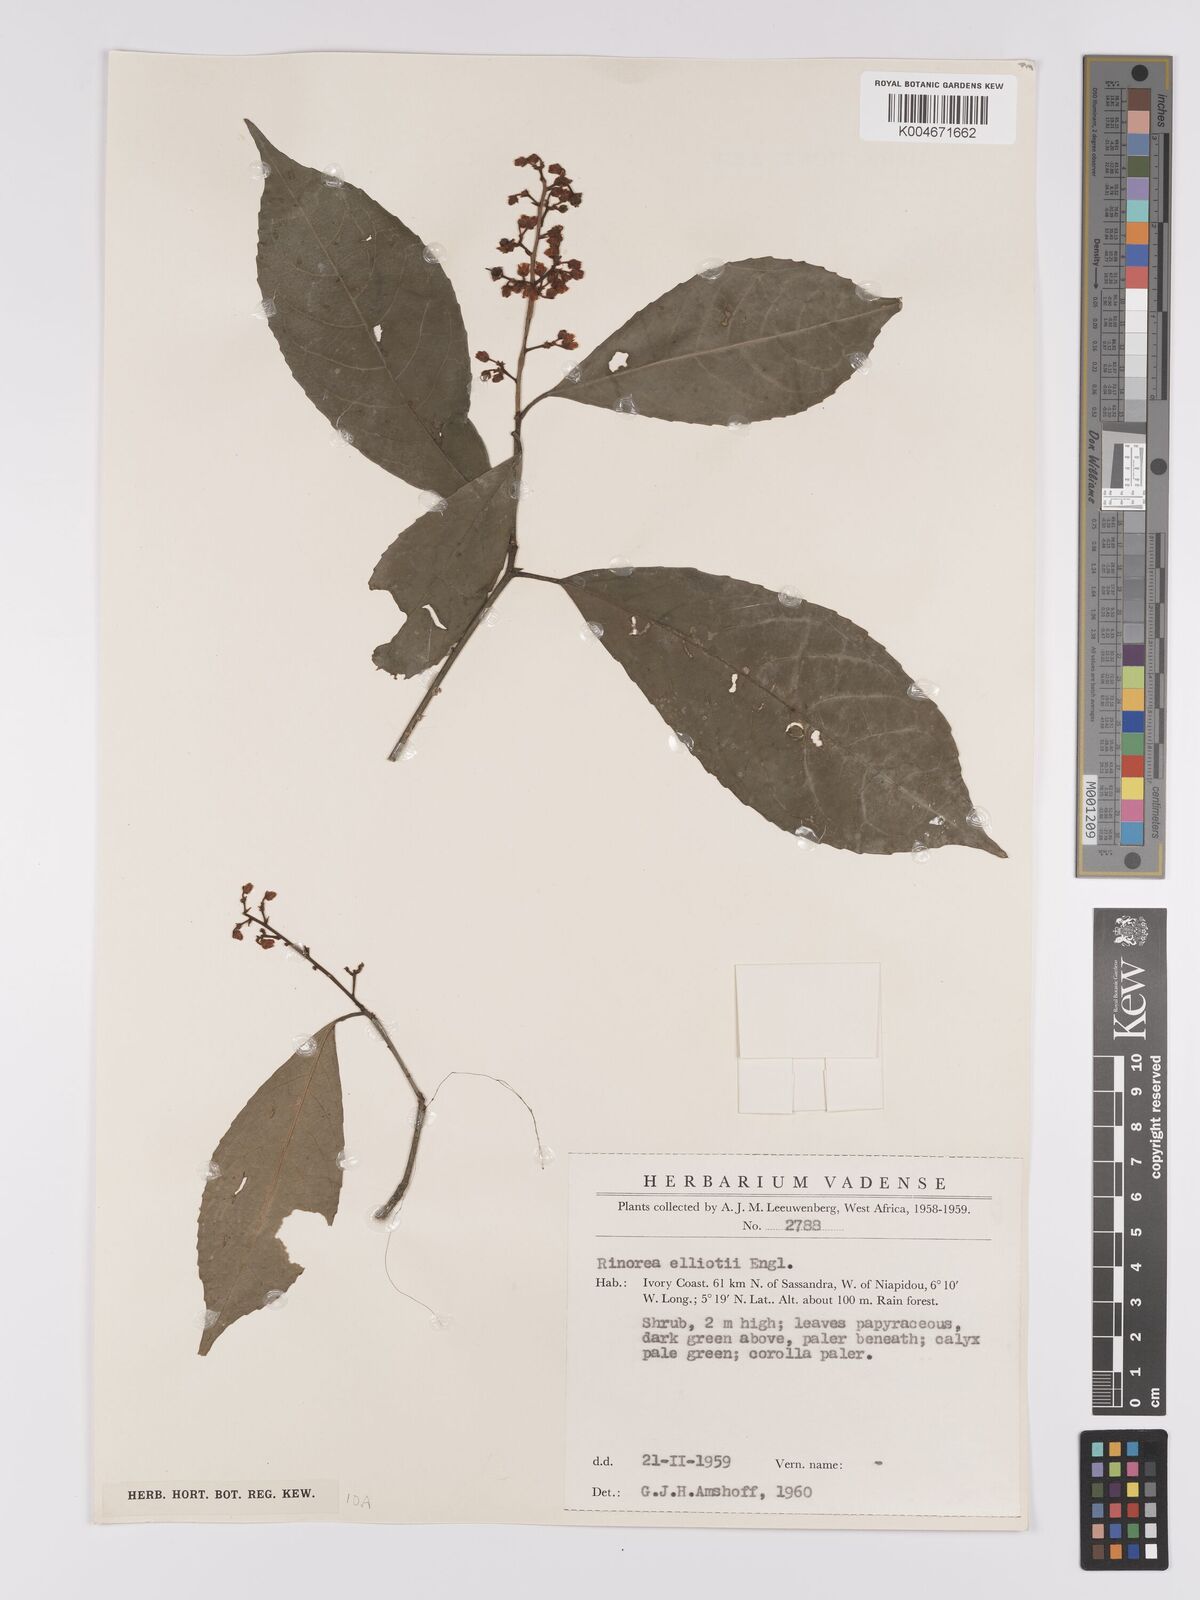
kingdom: Plantae
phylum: Tracheophyta
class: Magnoliopsida
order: Malpighiales
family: Violaceae
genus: Rinorea
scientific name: Rinorea welwitschii
